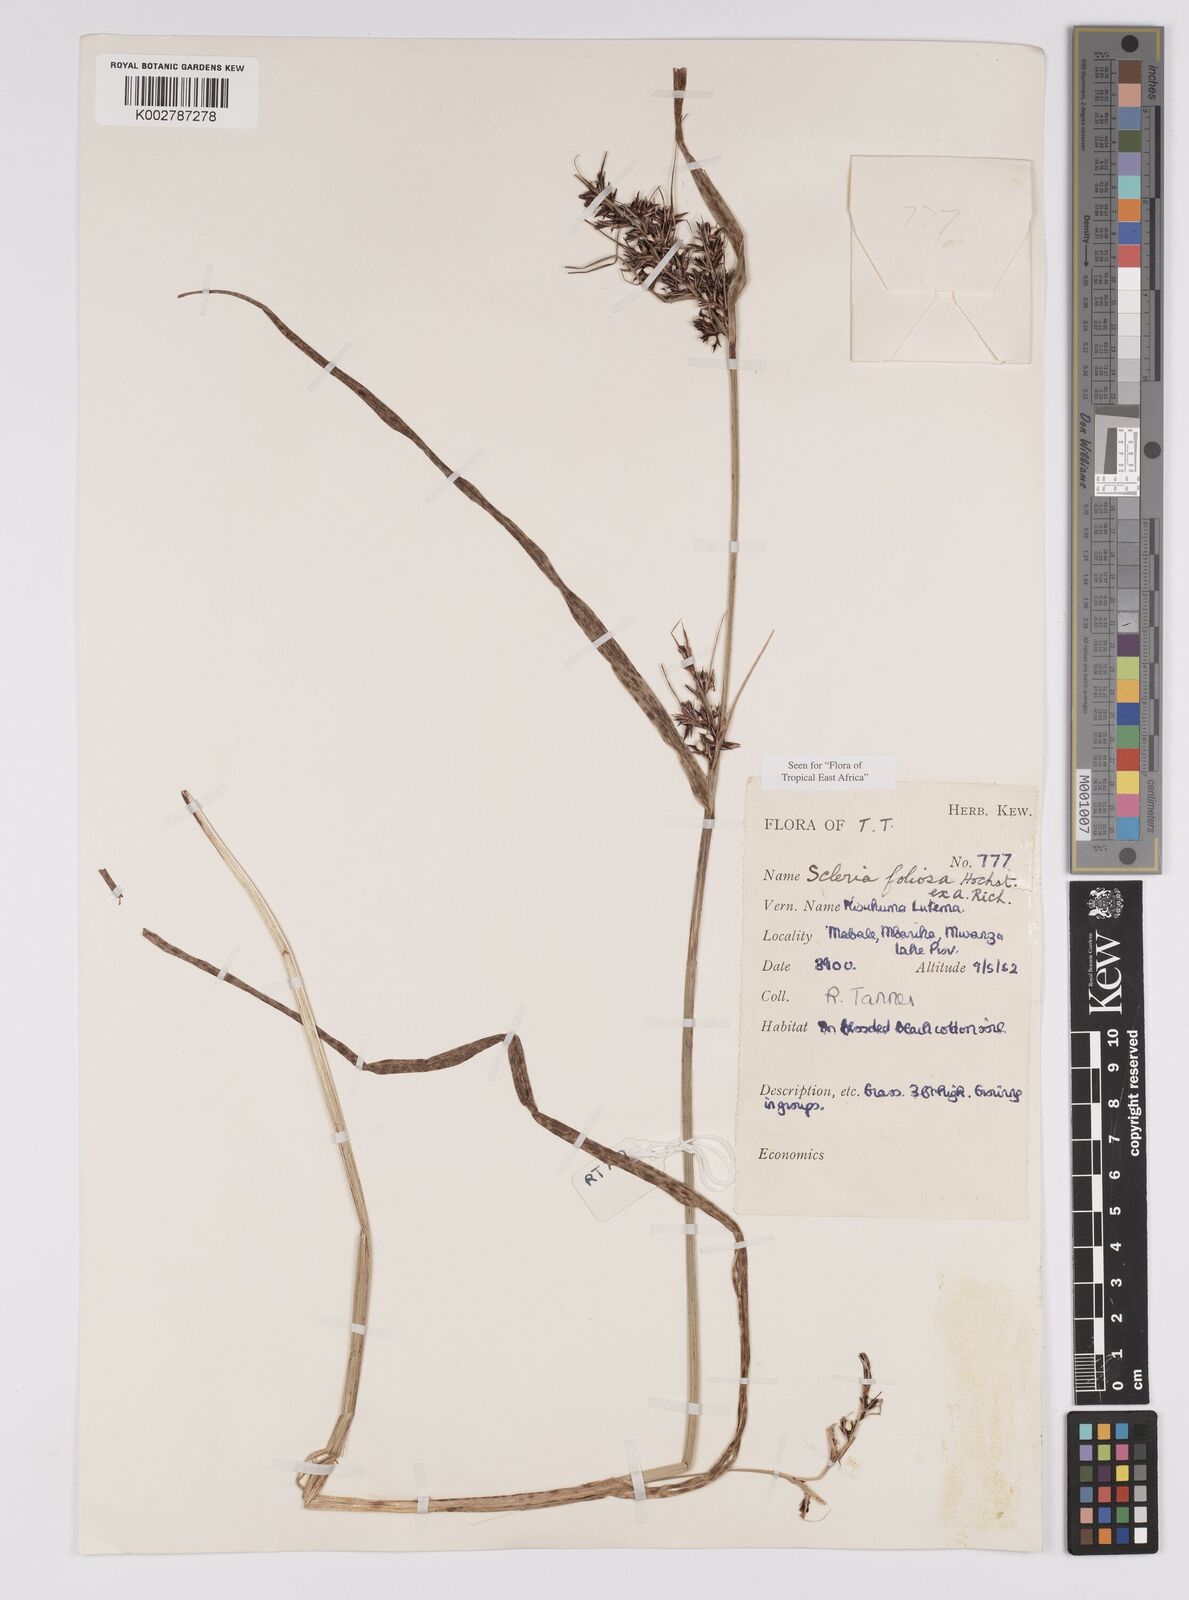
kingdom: Plantae
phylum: Tracheophyta
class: Liliopsida
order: Poales
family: Cyperaceae
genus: Scleria
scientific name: Scleria foliosa
